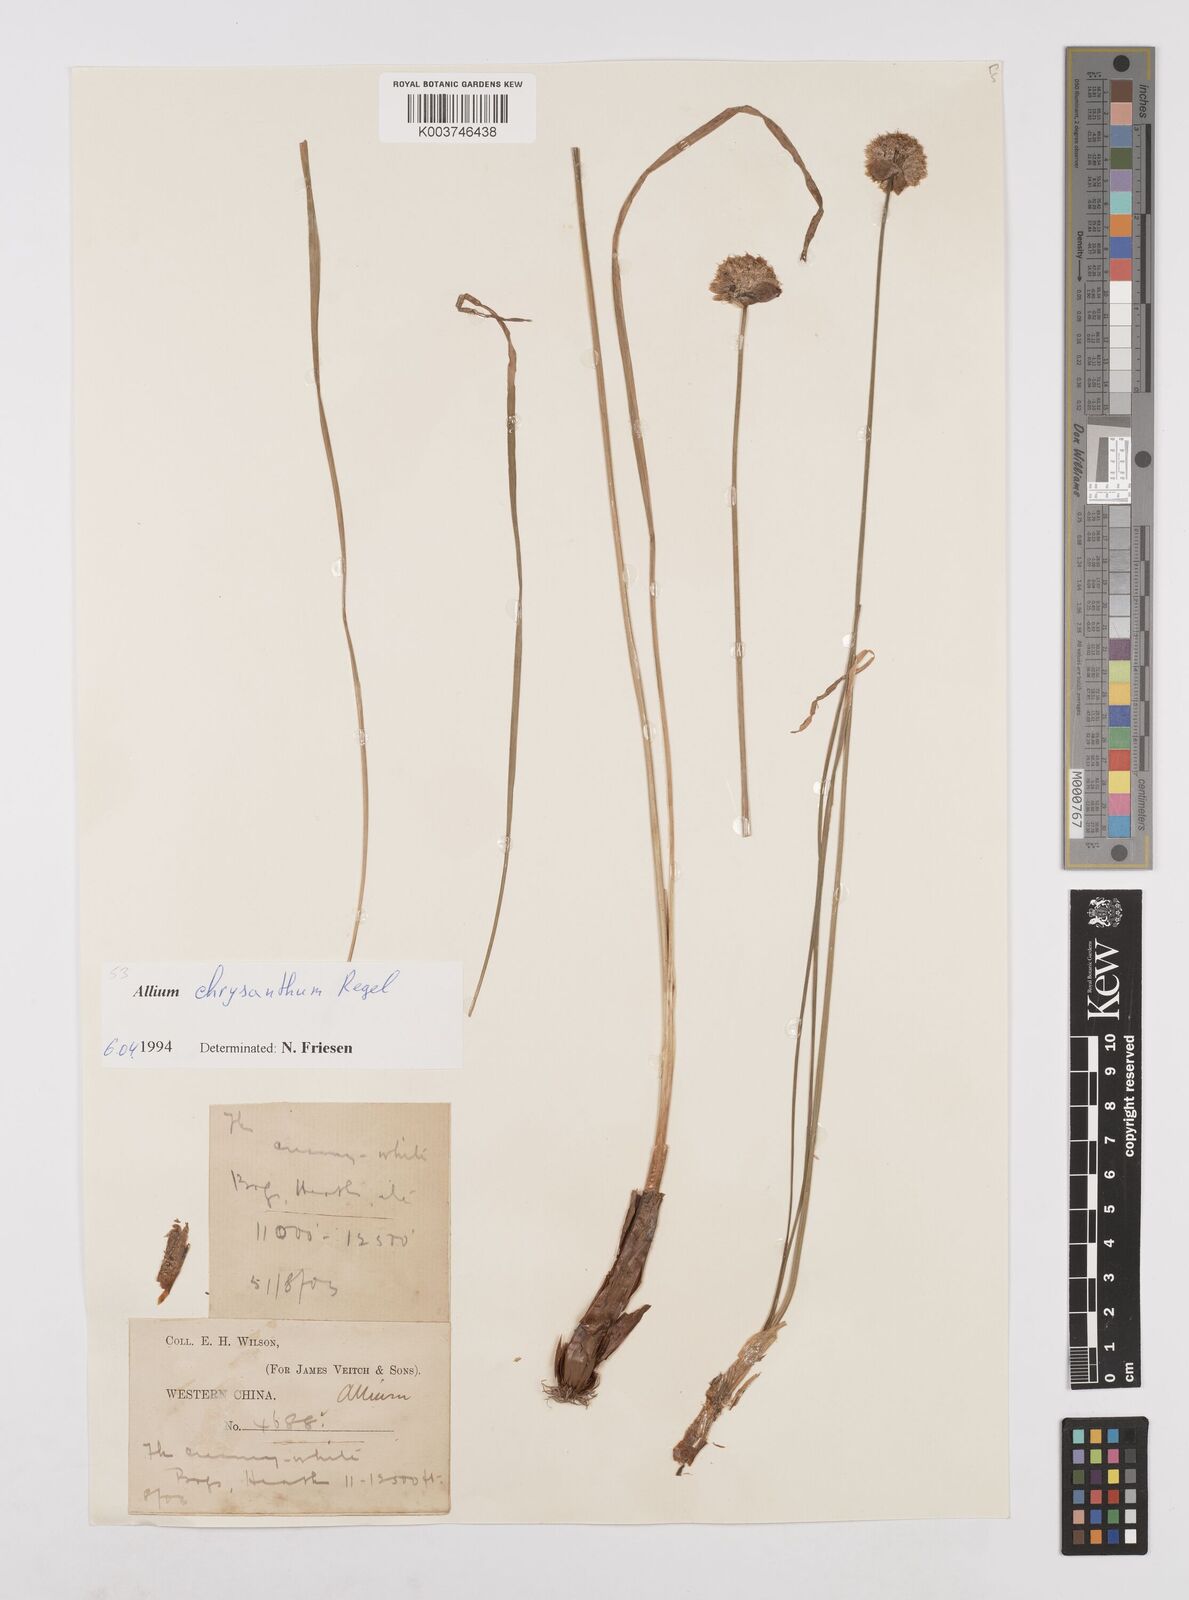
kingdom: Plantae
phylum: Tracheophyta
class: Liliopsida
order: Asparagales
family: Amaryllidaceae
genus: Allium
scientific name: Allium chrysanthum
